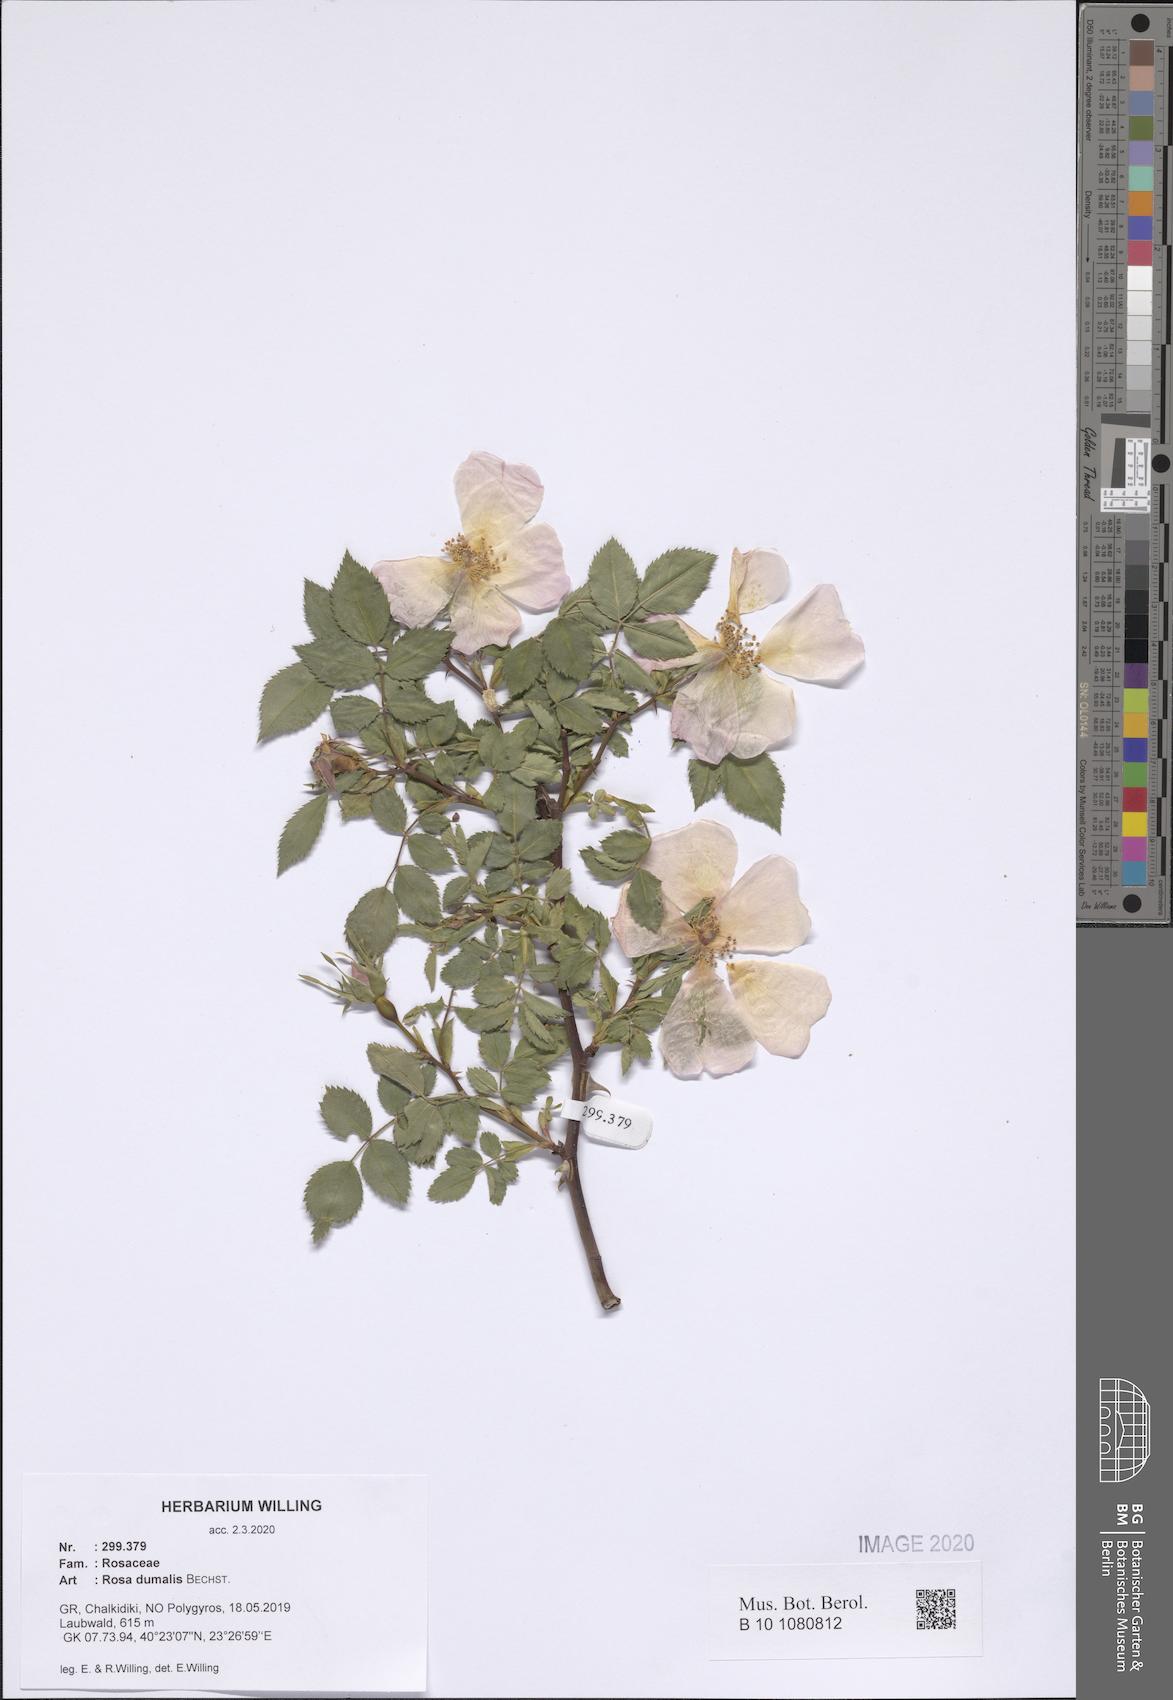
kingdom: Plantae
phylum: Tracheophyta
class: Magnoliopsida
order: Rosales
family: Rosaceae
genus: Rosa
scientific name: Rosa dumalis
